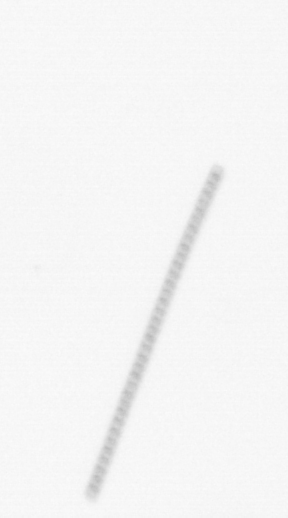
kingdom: Chromista
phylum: Ochrophyta
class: Bacillariophyceae
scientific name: Bacillariophyceae
